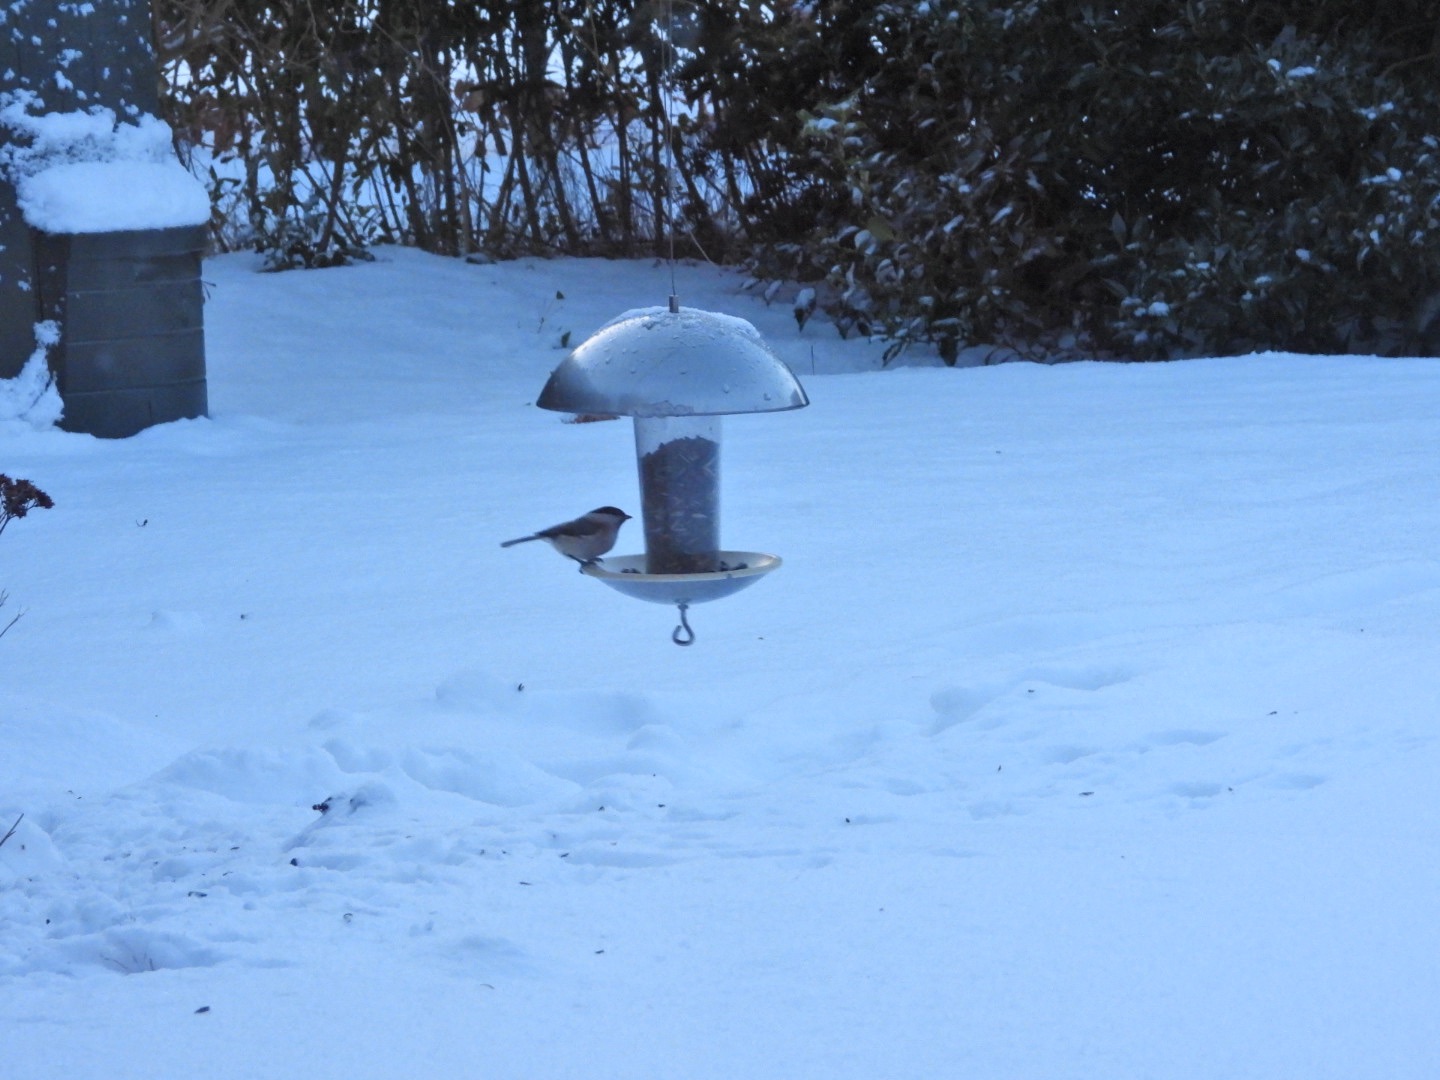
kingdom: Animalia
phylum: Chordata
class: Aves
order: Passeriformes
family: Paridae
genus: Poecile
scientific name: Poecile palustris
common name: Sumpmejse
